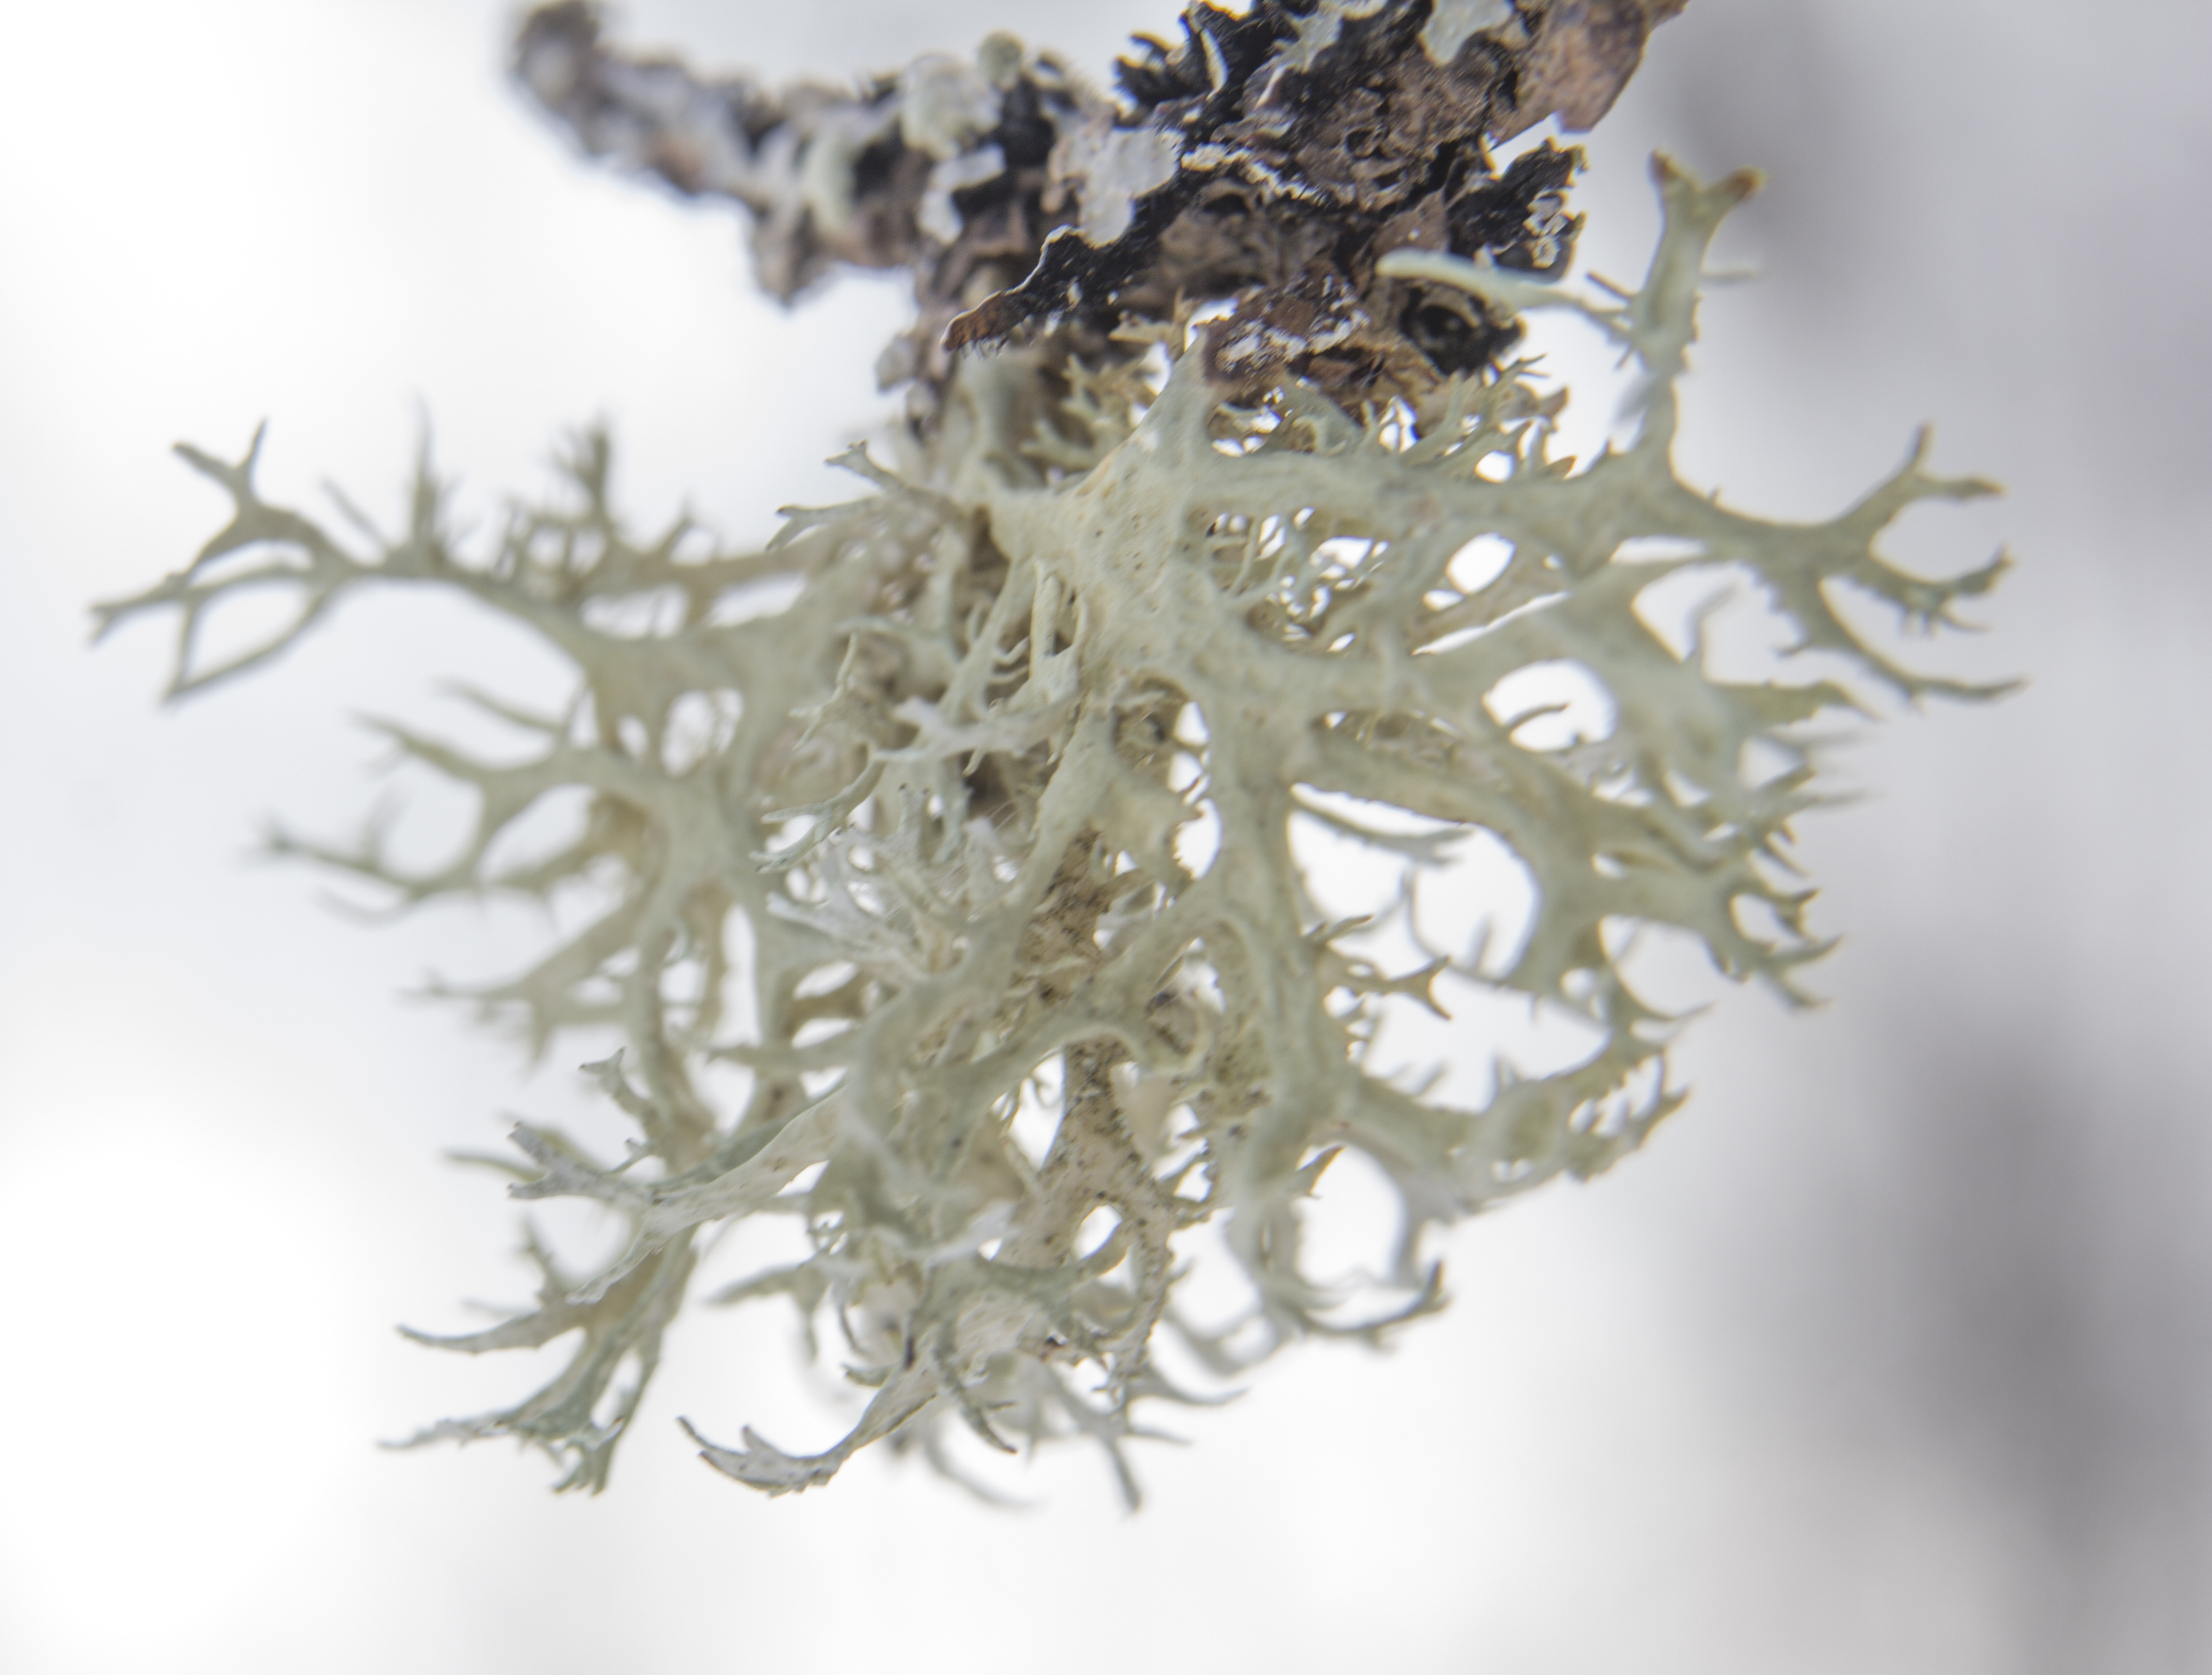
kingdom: Fungi
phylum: Ascomycota
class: Lecanoromycetes
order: Lecanorales
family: Parmeliaceae
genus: Evernia
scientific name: Evernia prunastri
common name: Oak moss
